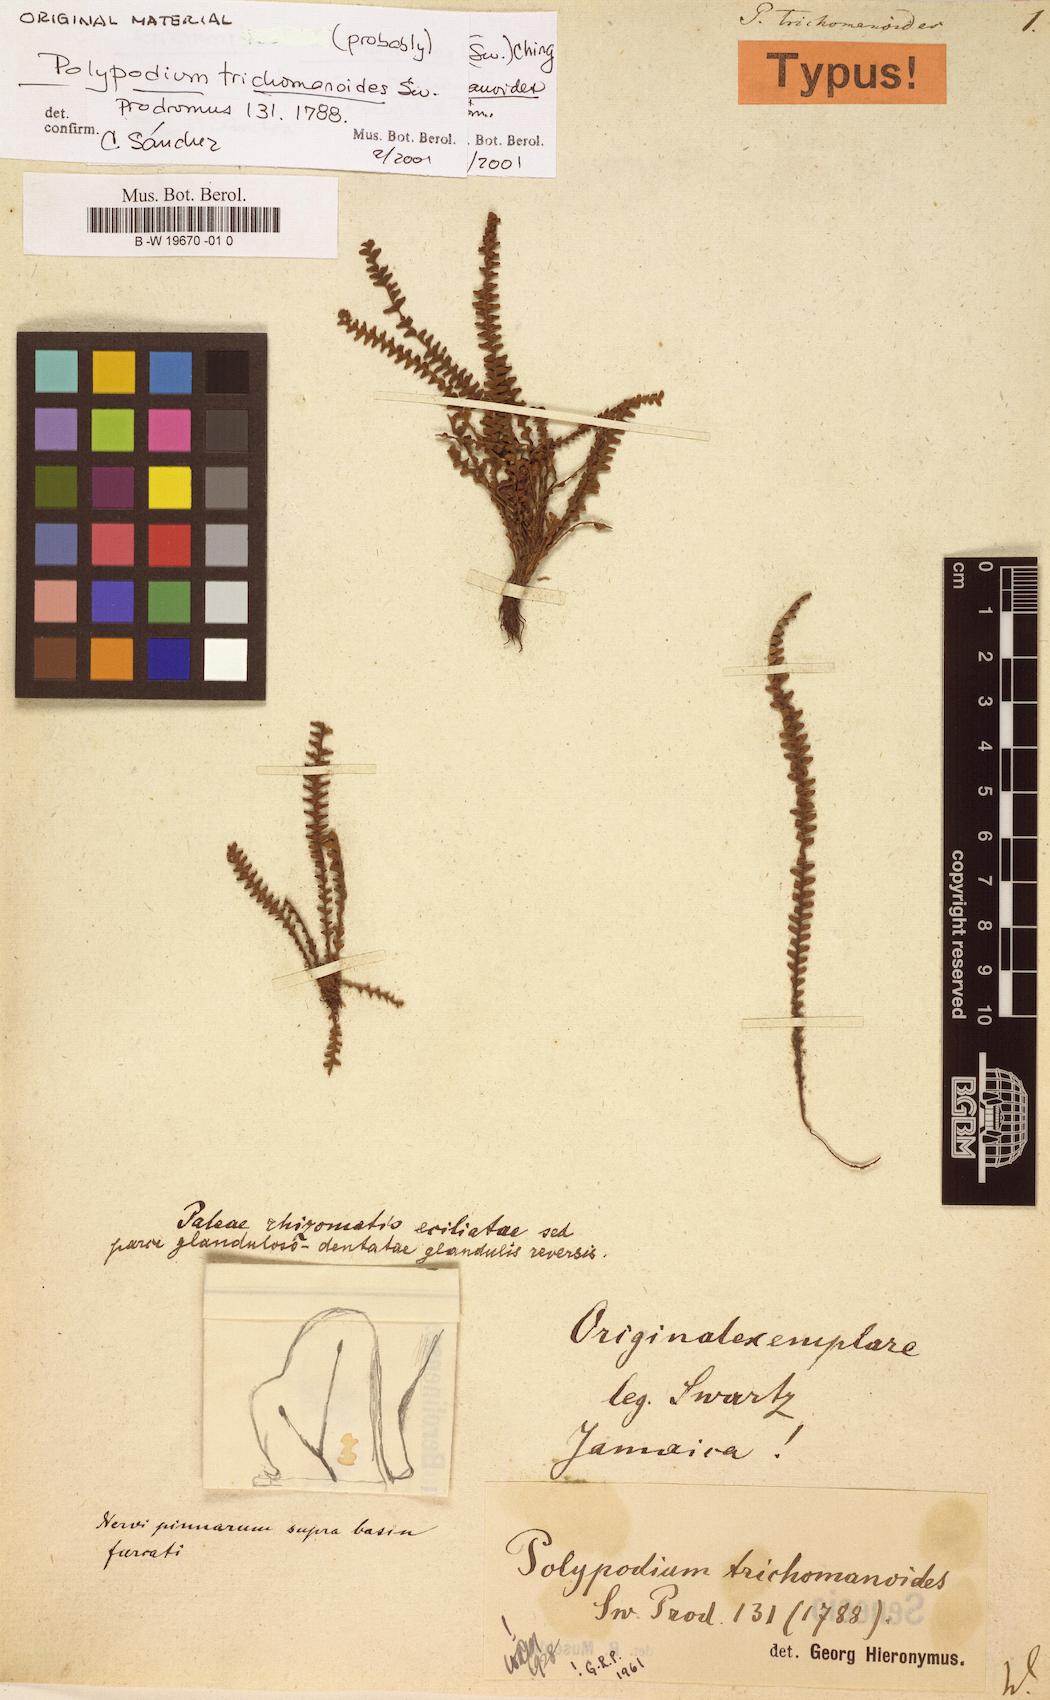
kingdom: Plantae
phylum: Tracheophyta
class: Polypodiopsida
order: Polypodiales
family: Polypodiaceae
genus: Moranopteris
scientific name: Moranopteris trichomanoides
